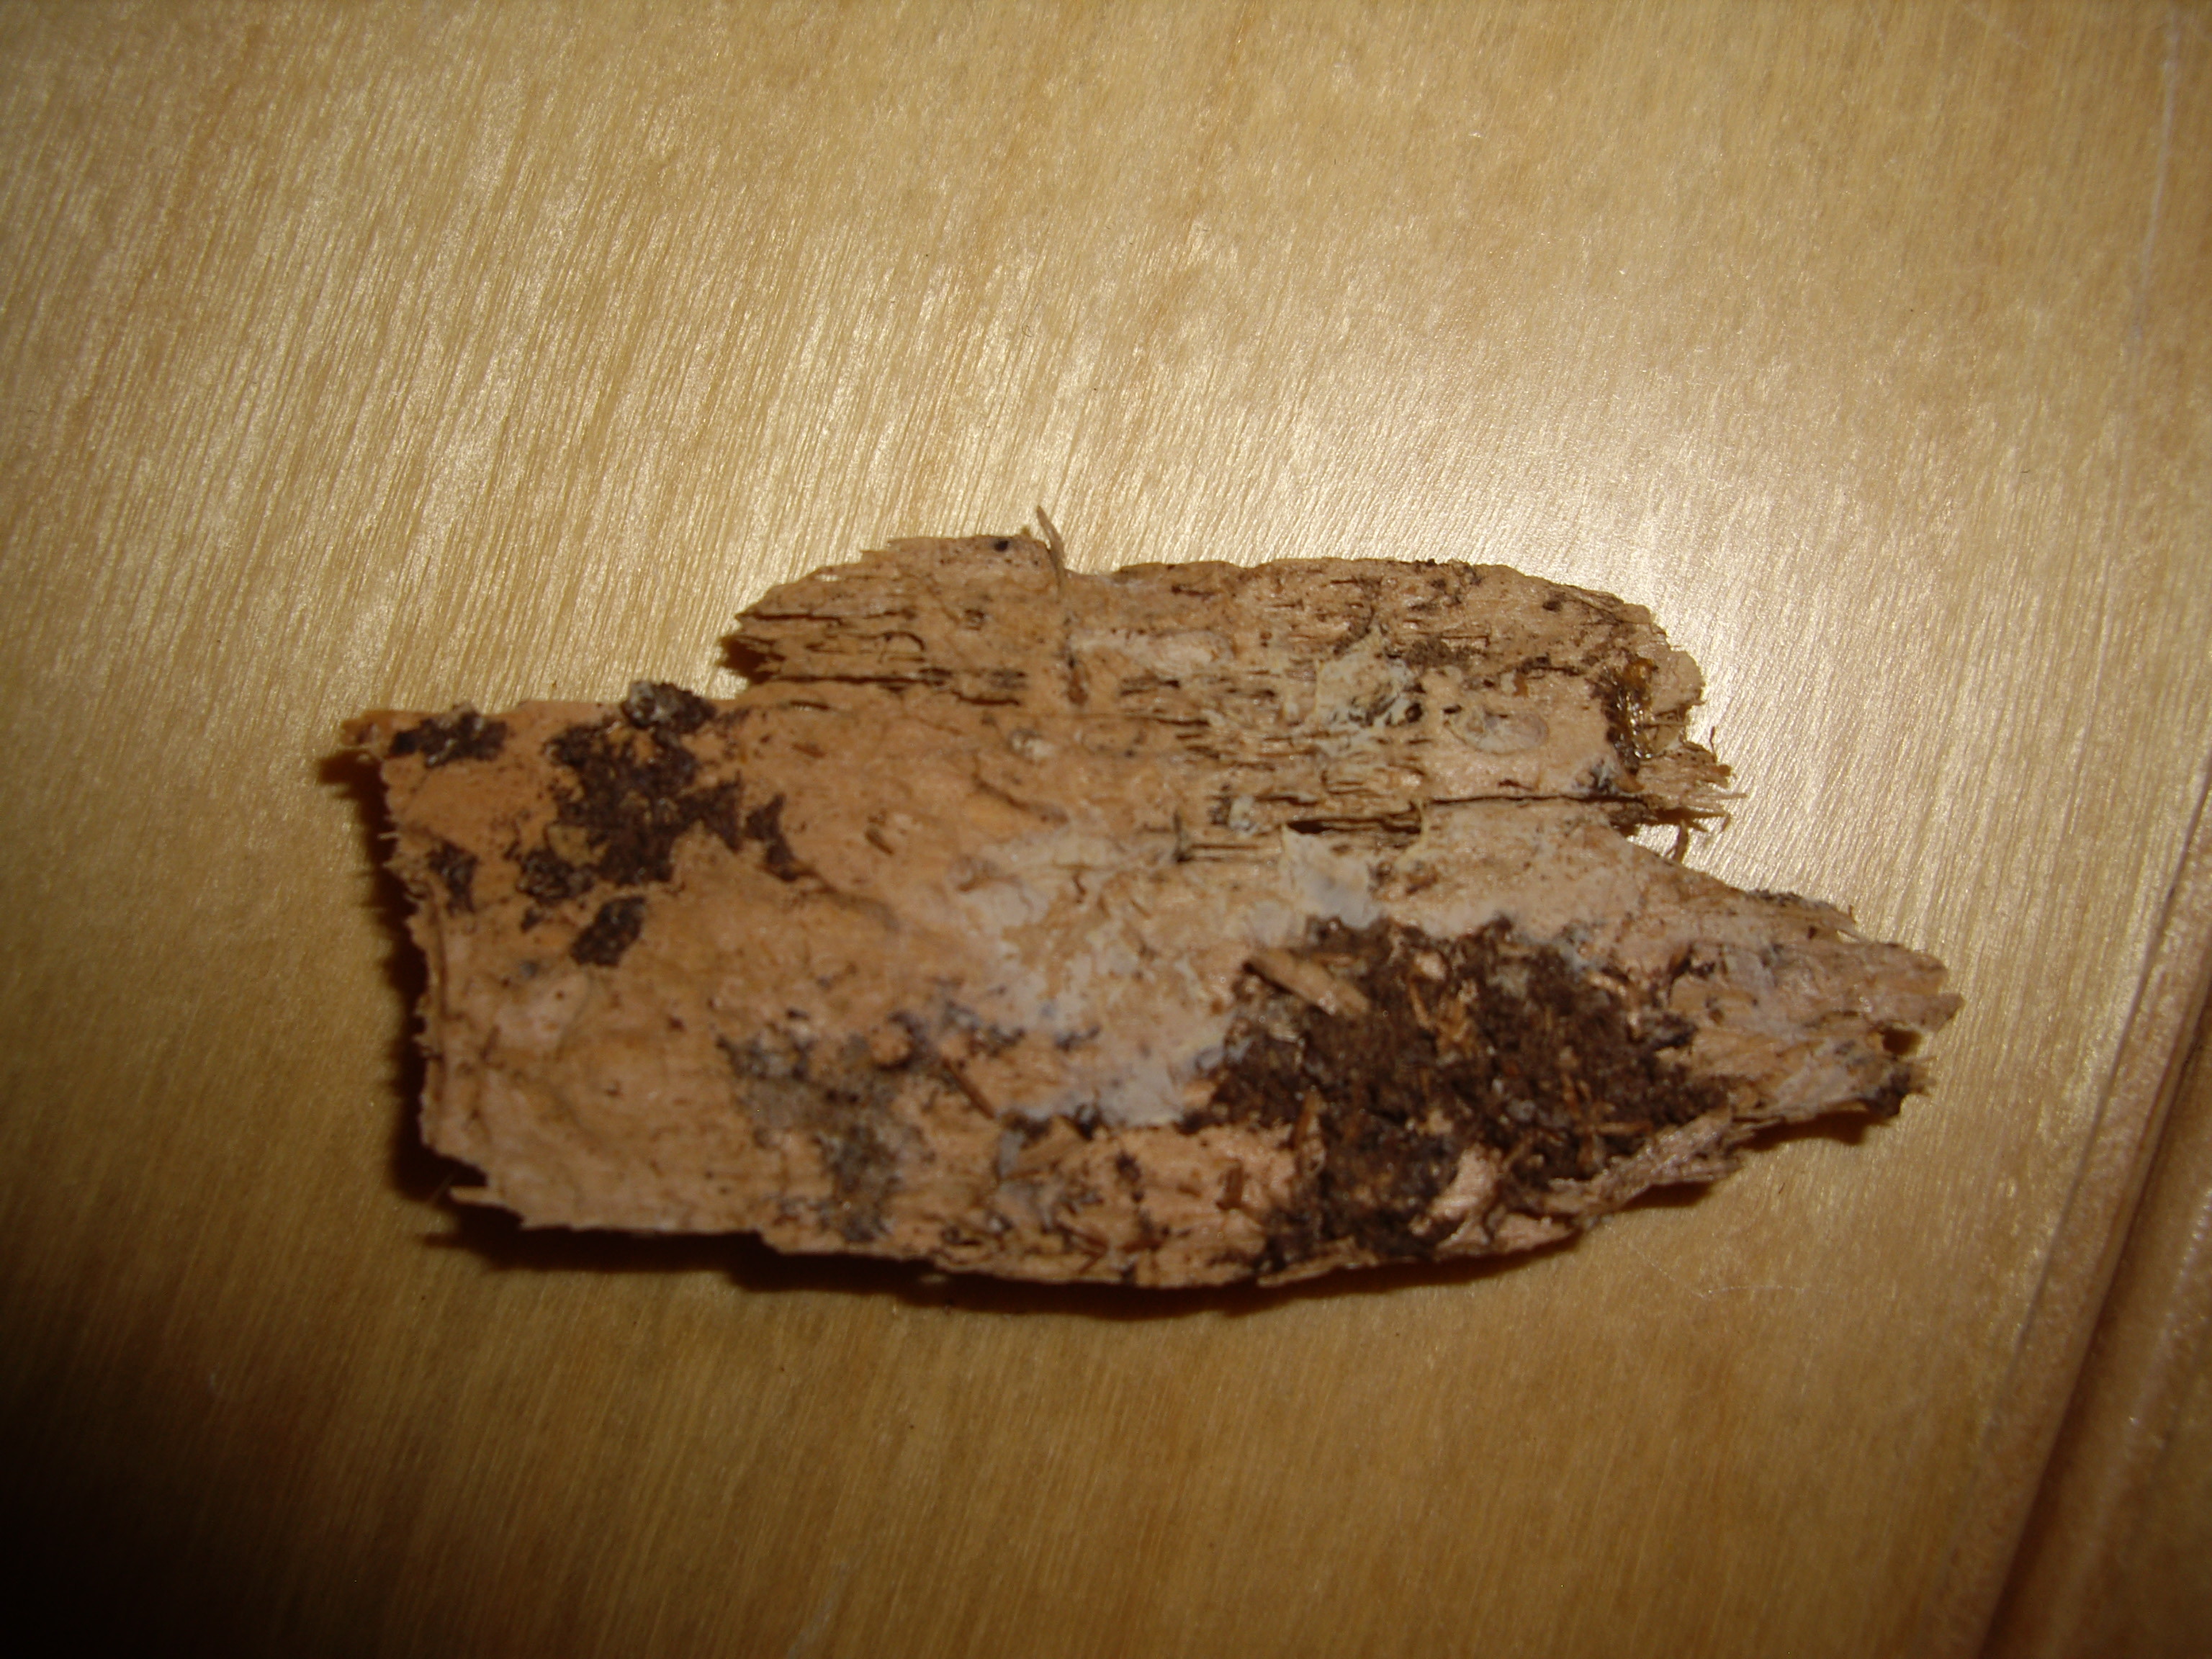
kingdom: Fungi
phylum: Basidiomycota
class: Agaricomycetes
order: Atheliales
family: Atheliaceae
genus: Leptosporomyces
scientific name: Leptosporomyces septentrionalis
